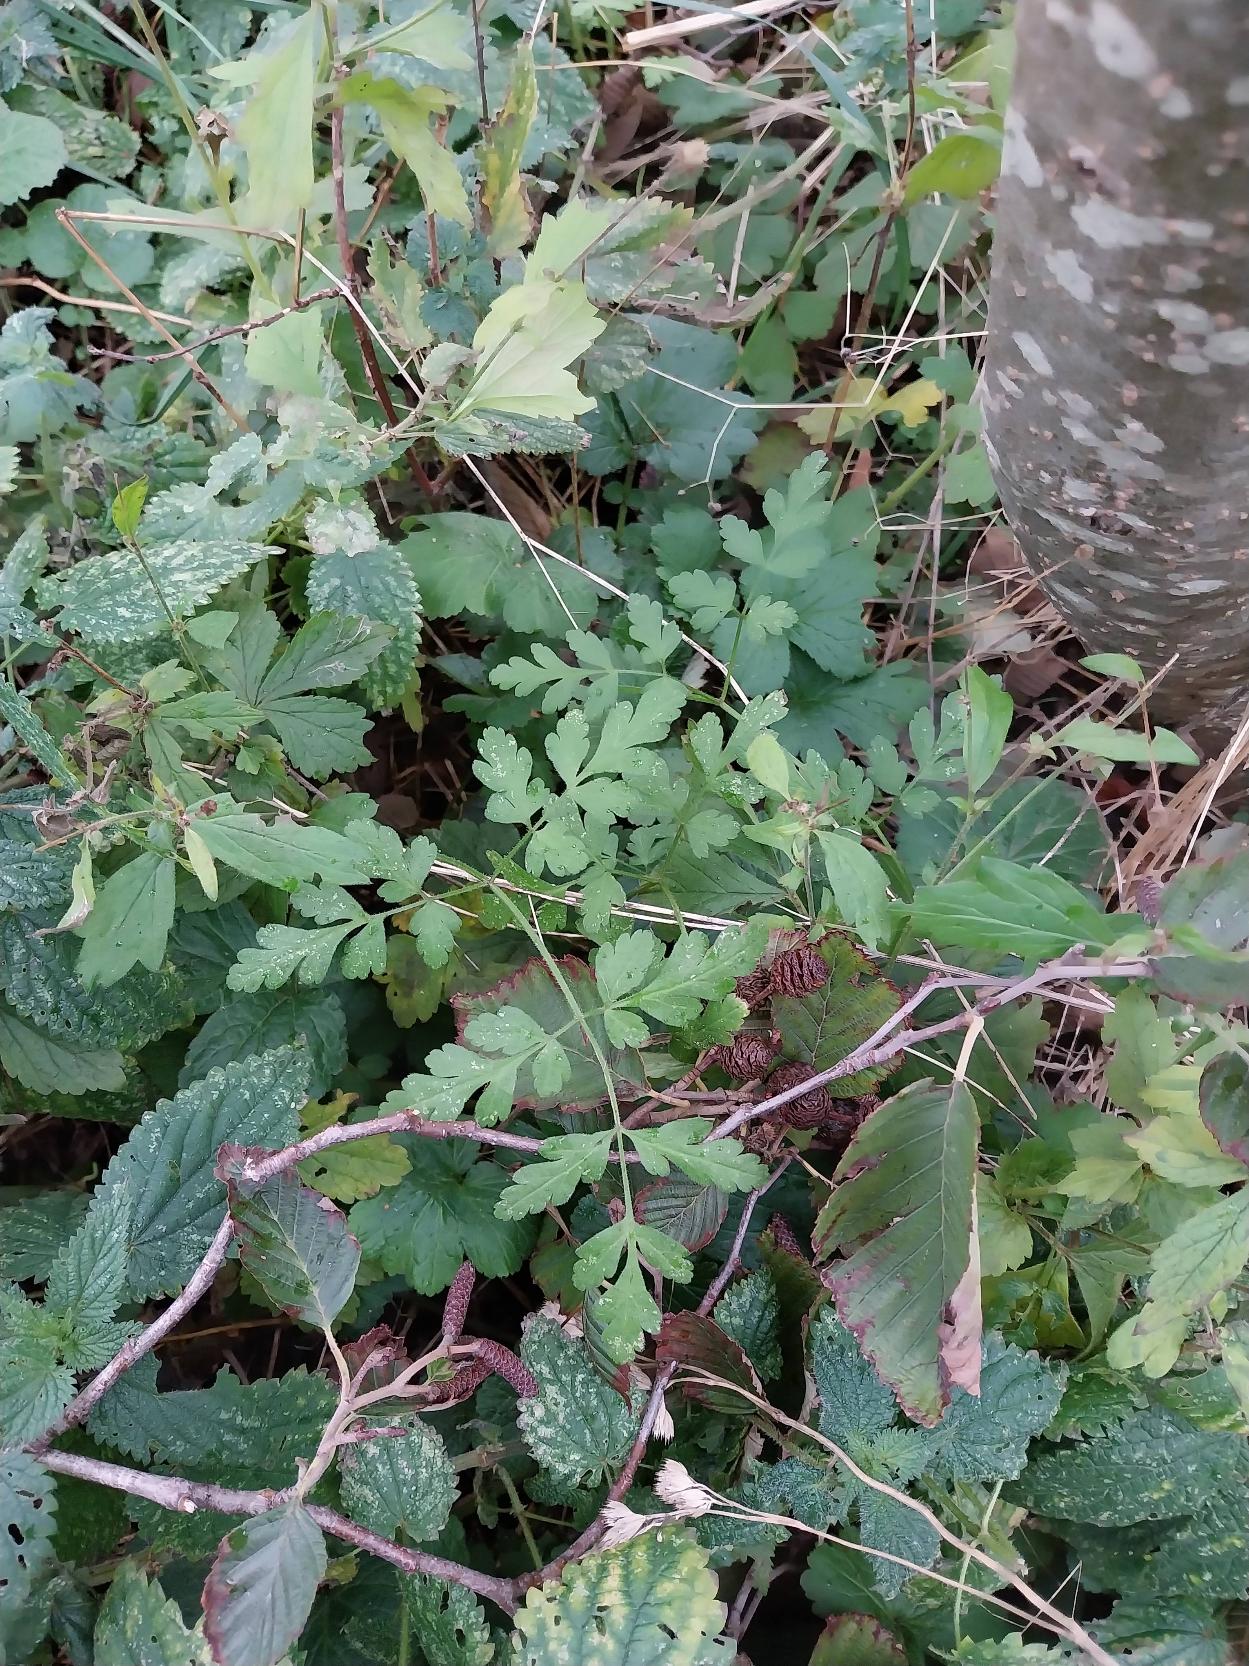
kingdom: Plantae
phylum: Tracheophyta
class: Magnoliopsida
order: Apiales
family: Apiaceae
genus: Chaerophyllum
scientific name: Chaerophyllum temulum
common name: Almindelig hulsvøb
